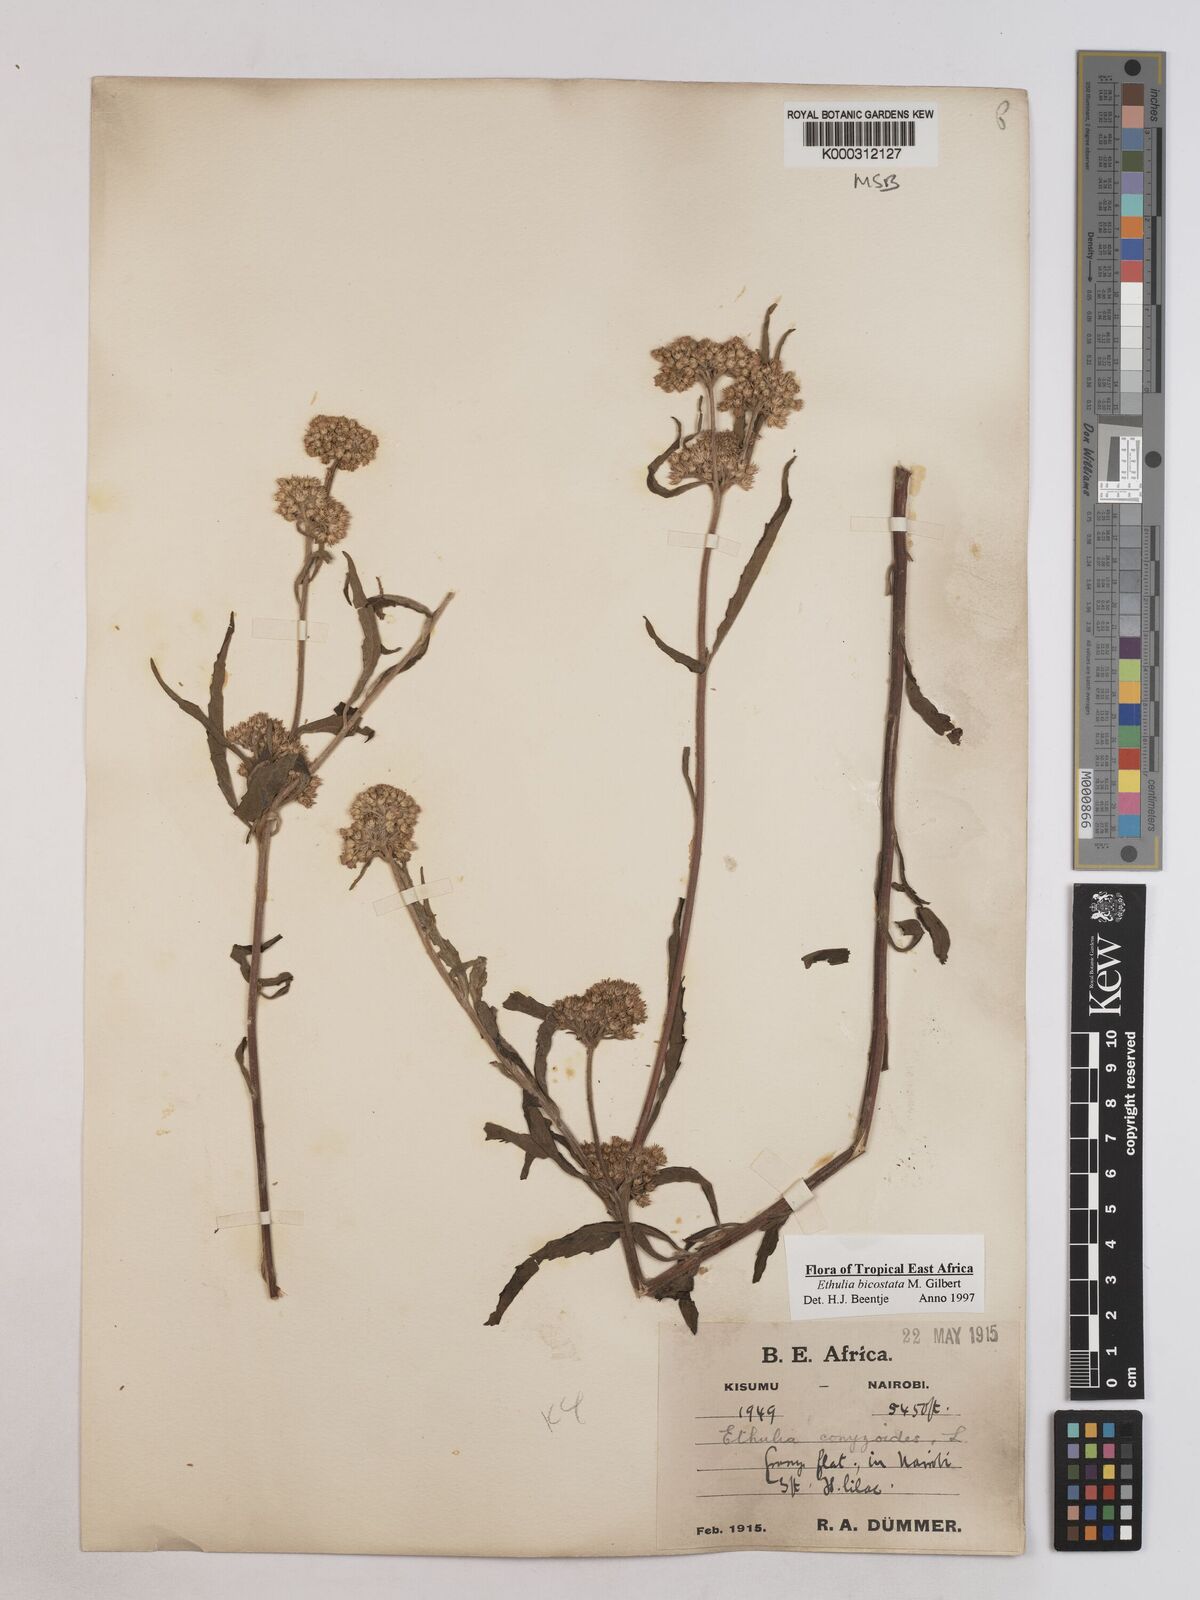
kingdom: Plantae
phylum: Tracheophyta
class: Magnoliopsida
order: Asterales
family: Asteraceae
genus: Ethulia
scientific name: Ethulia bicostata
